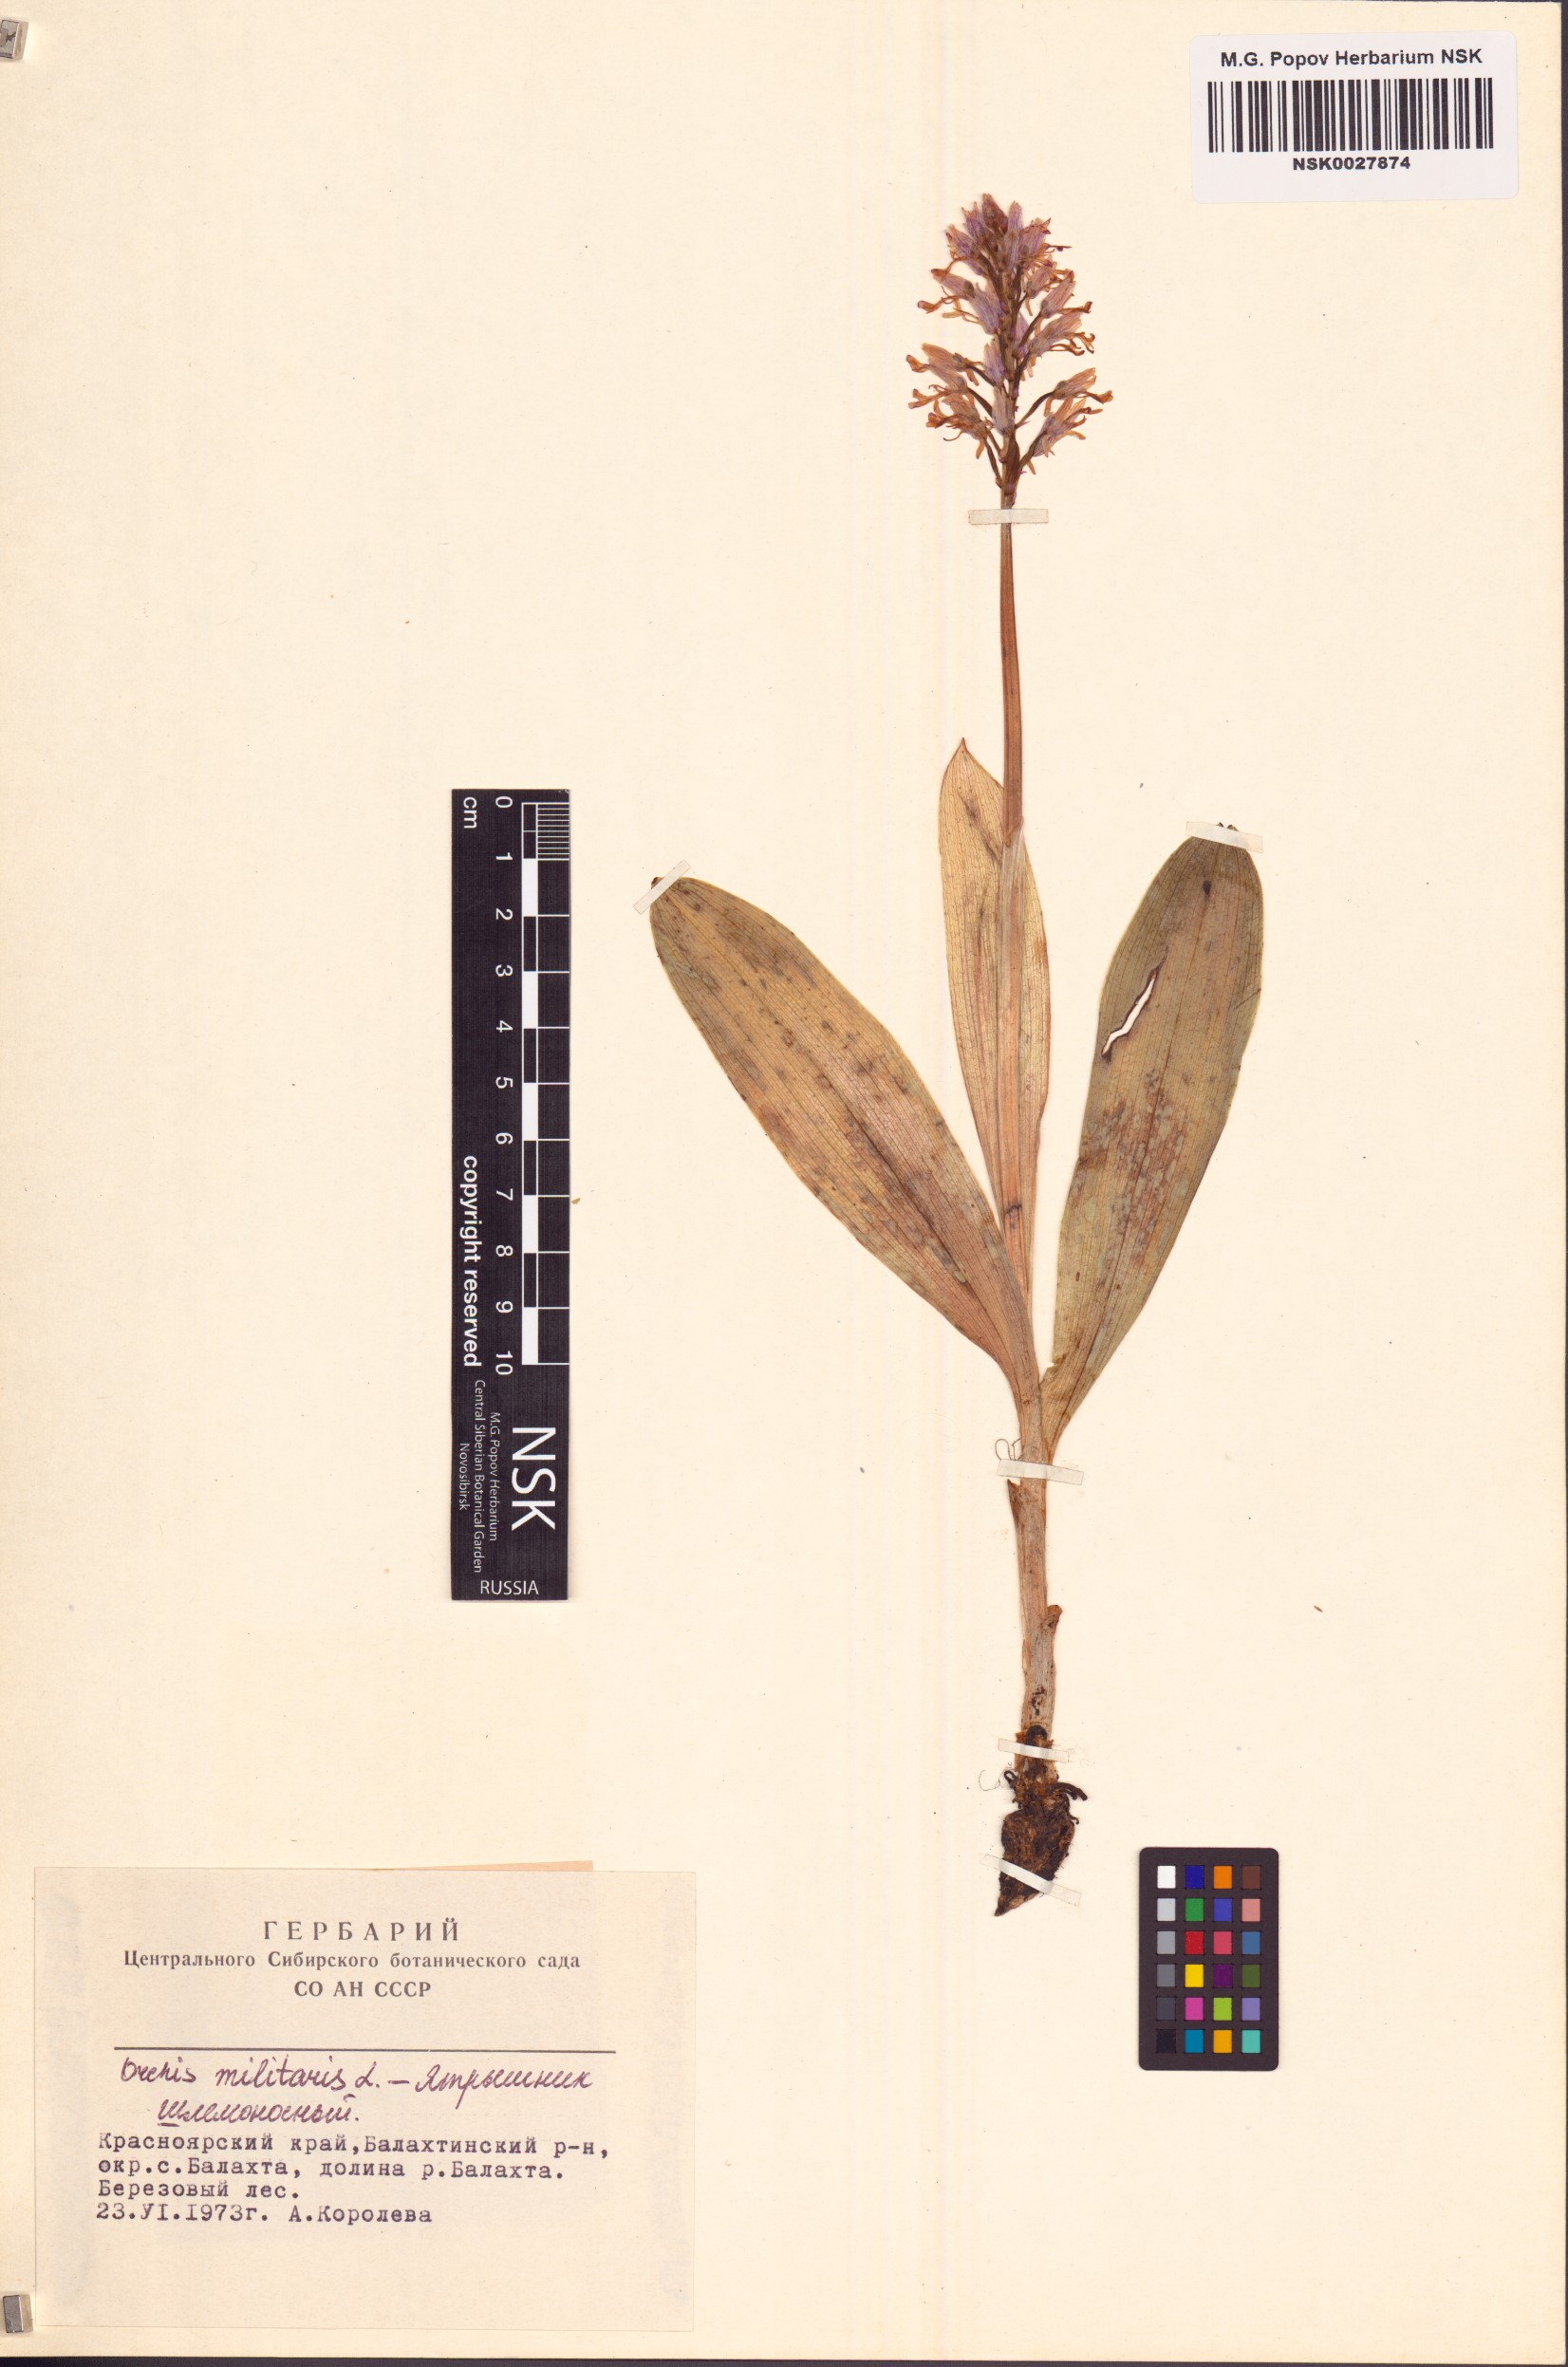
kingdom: Plantae
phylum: Tracheophyta
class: Liliopsida
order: Asparagales
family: Orchidaceae
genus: Orchis
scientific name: Orchis militaris
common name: Military orchid
